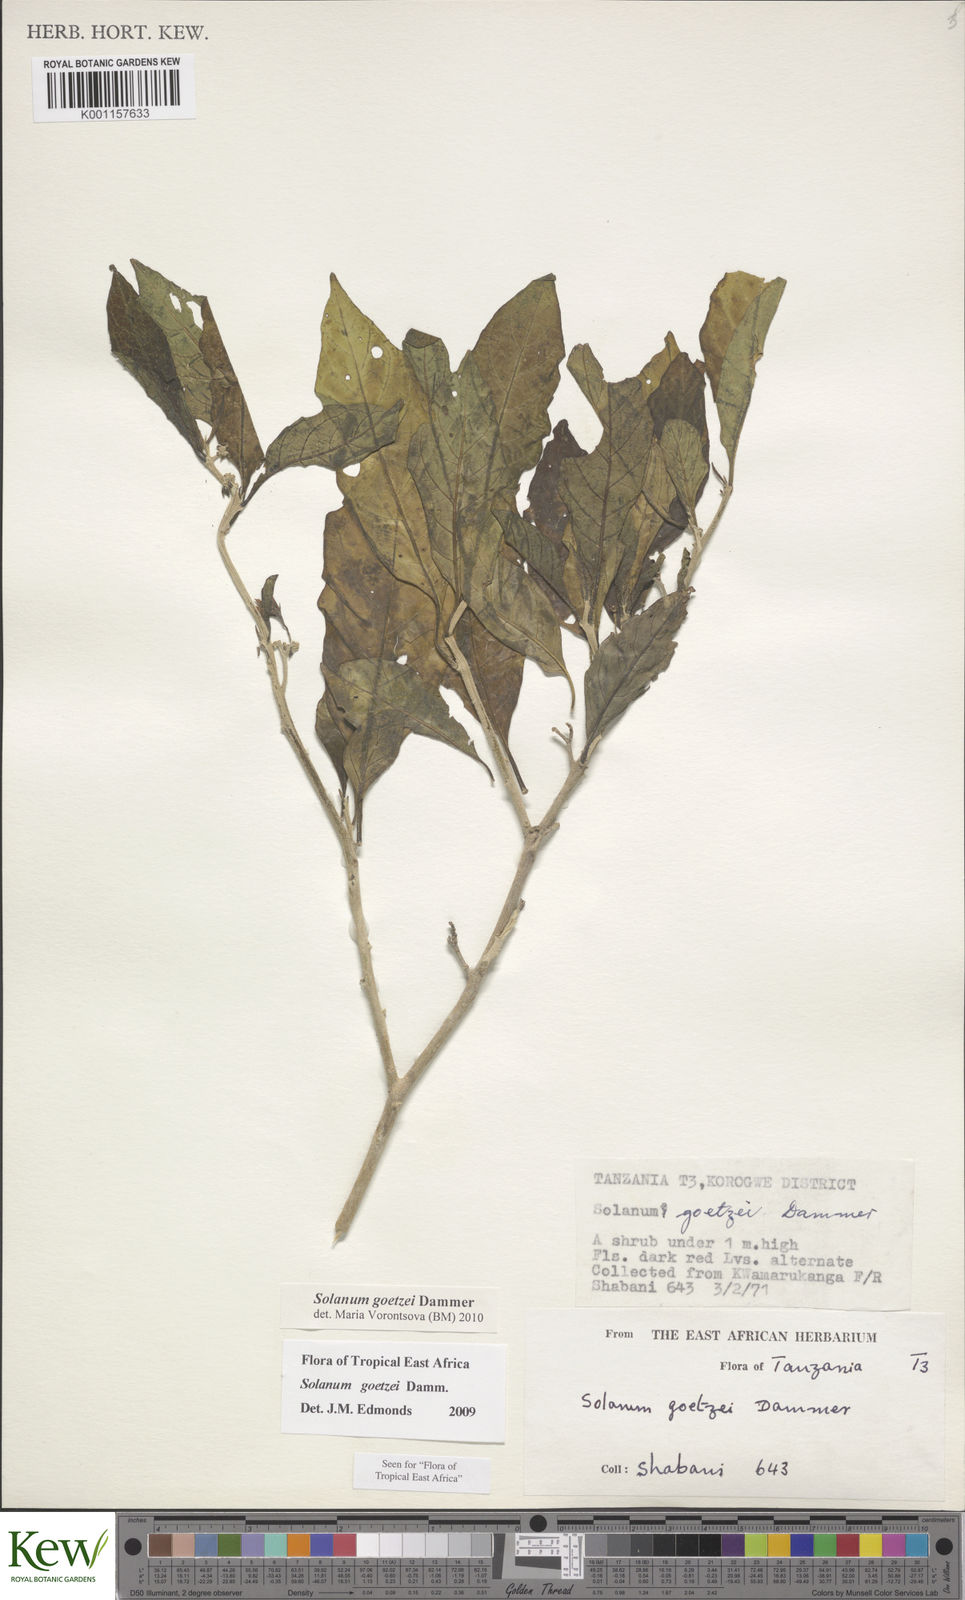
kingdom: Plantae
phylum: Tracheophyta
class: Magnoliopsida
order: Solanales
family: Solanaceae
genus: Solanum
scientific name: Solanum goetzei
